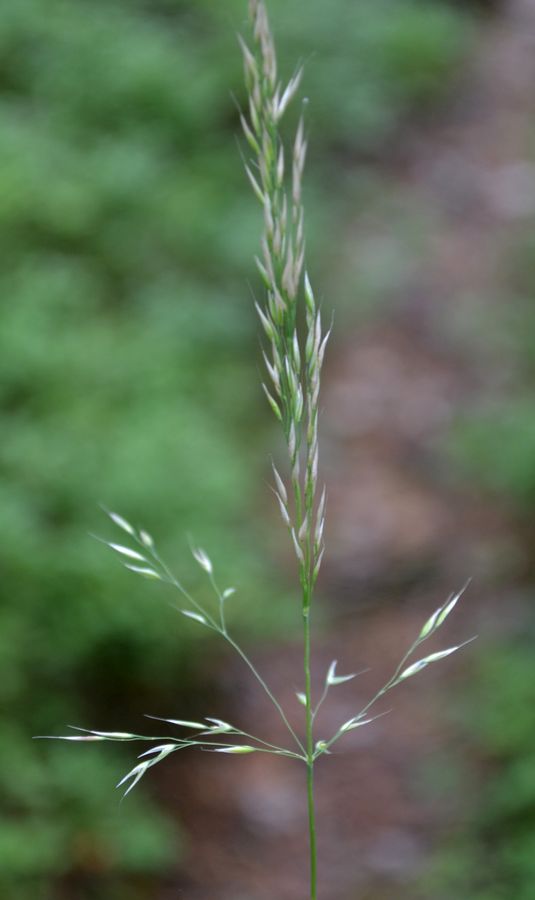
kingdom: Plantae
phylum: Tracheophyta
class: Liliopsida
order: Poales
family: Poaceae
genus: Calamagrostis
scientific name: Calamagrostis purpurea
